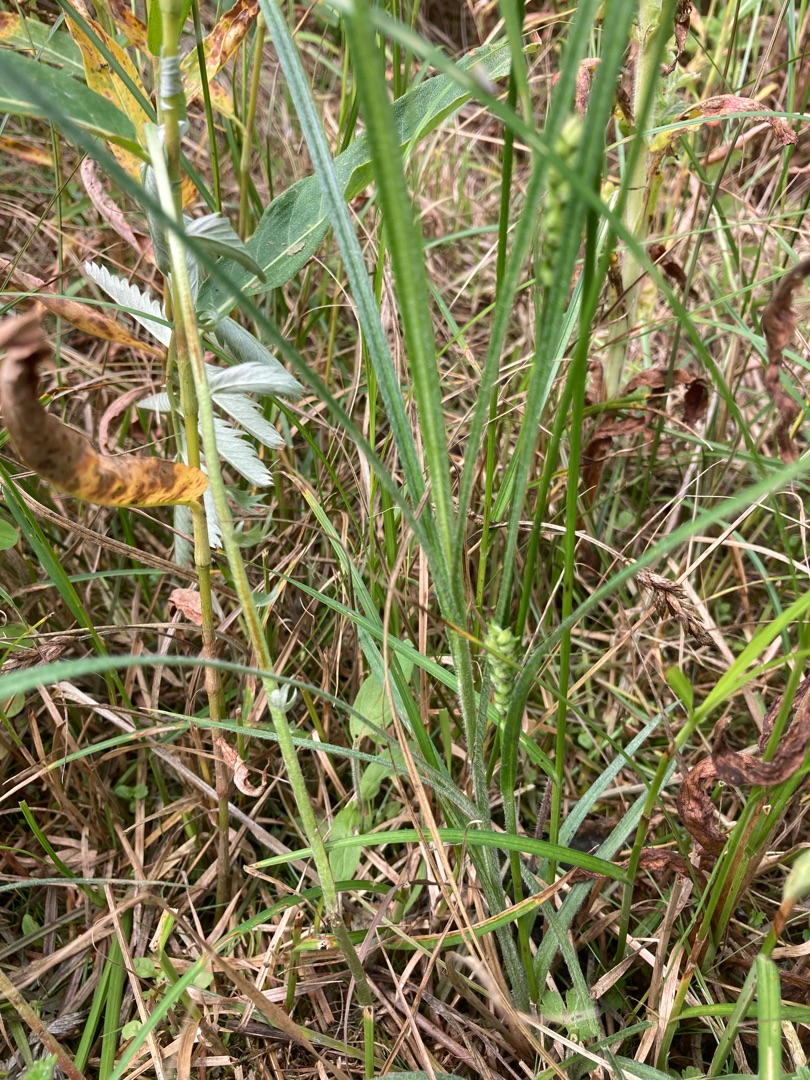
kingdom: Plantae
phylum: Tracheophyta
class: Liliopsida
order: Poales
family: Cyperaceae
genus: Carex
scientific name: Carex hirta
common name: Håret star
